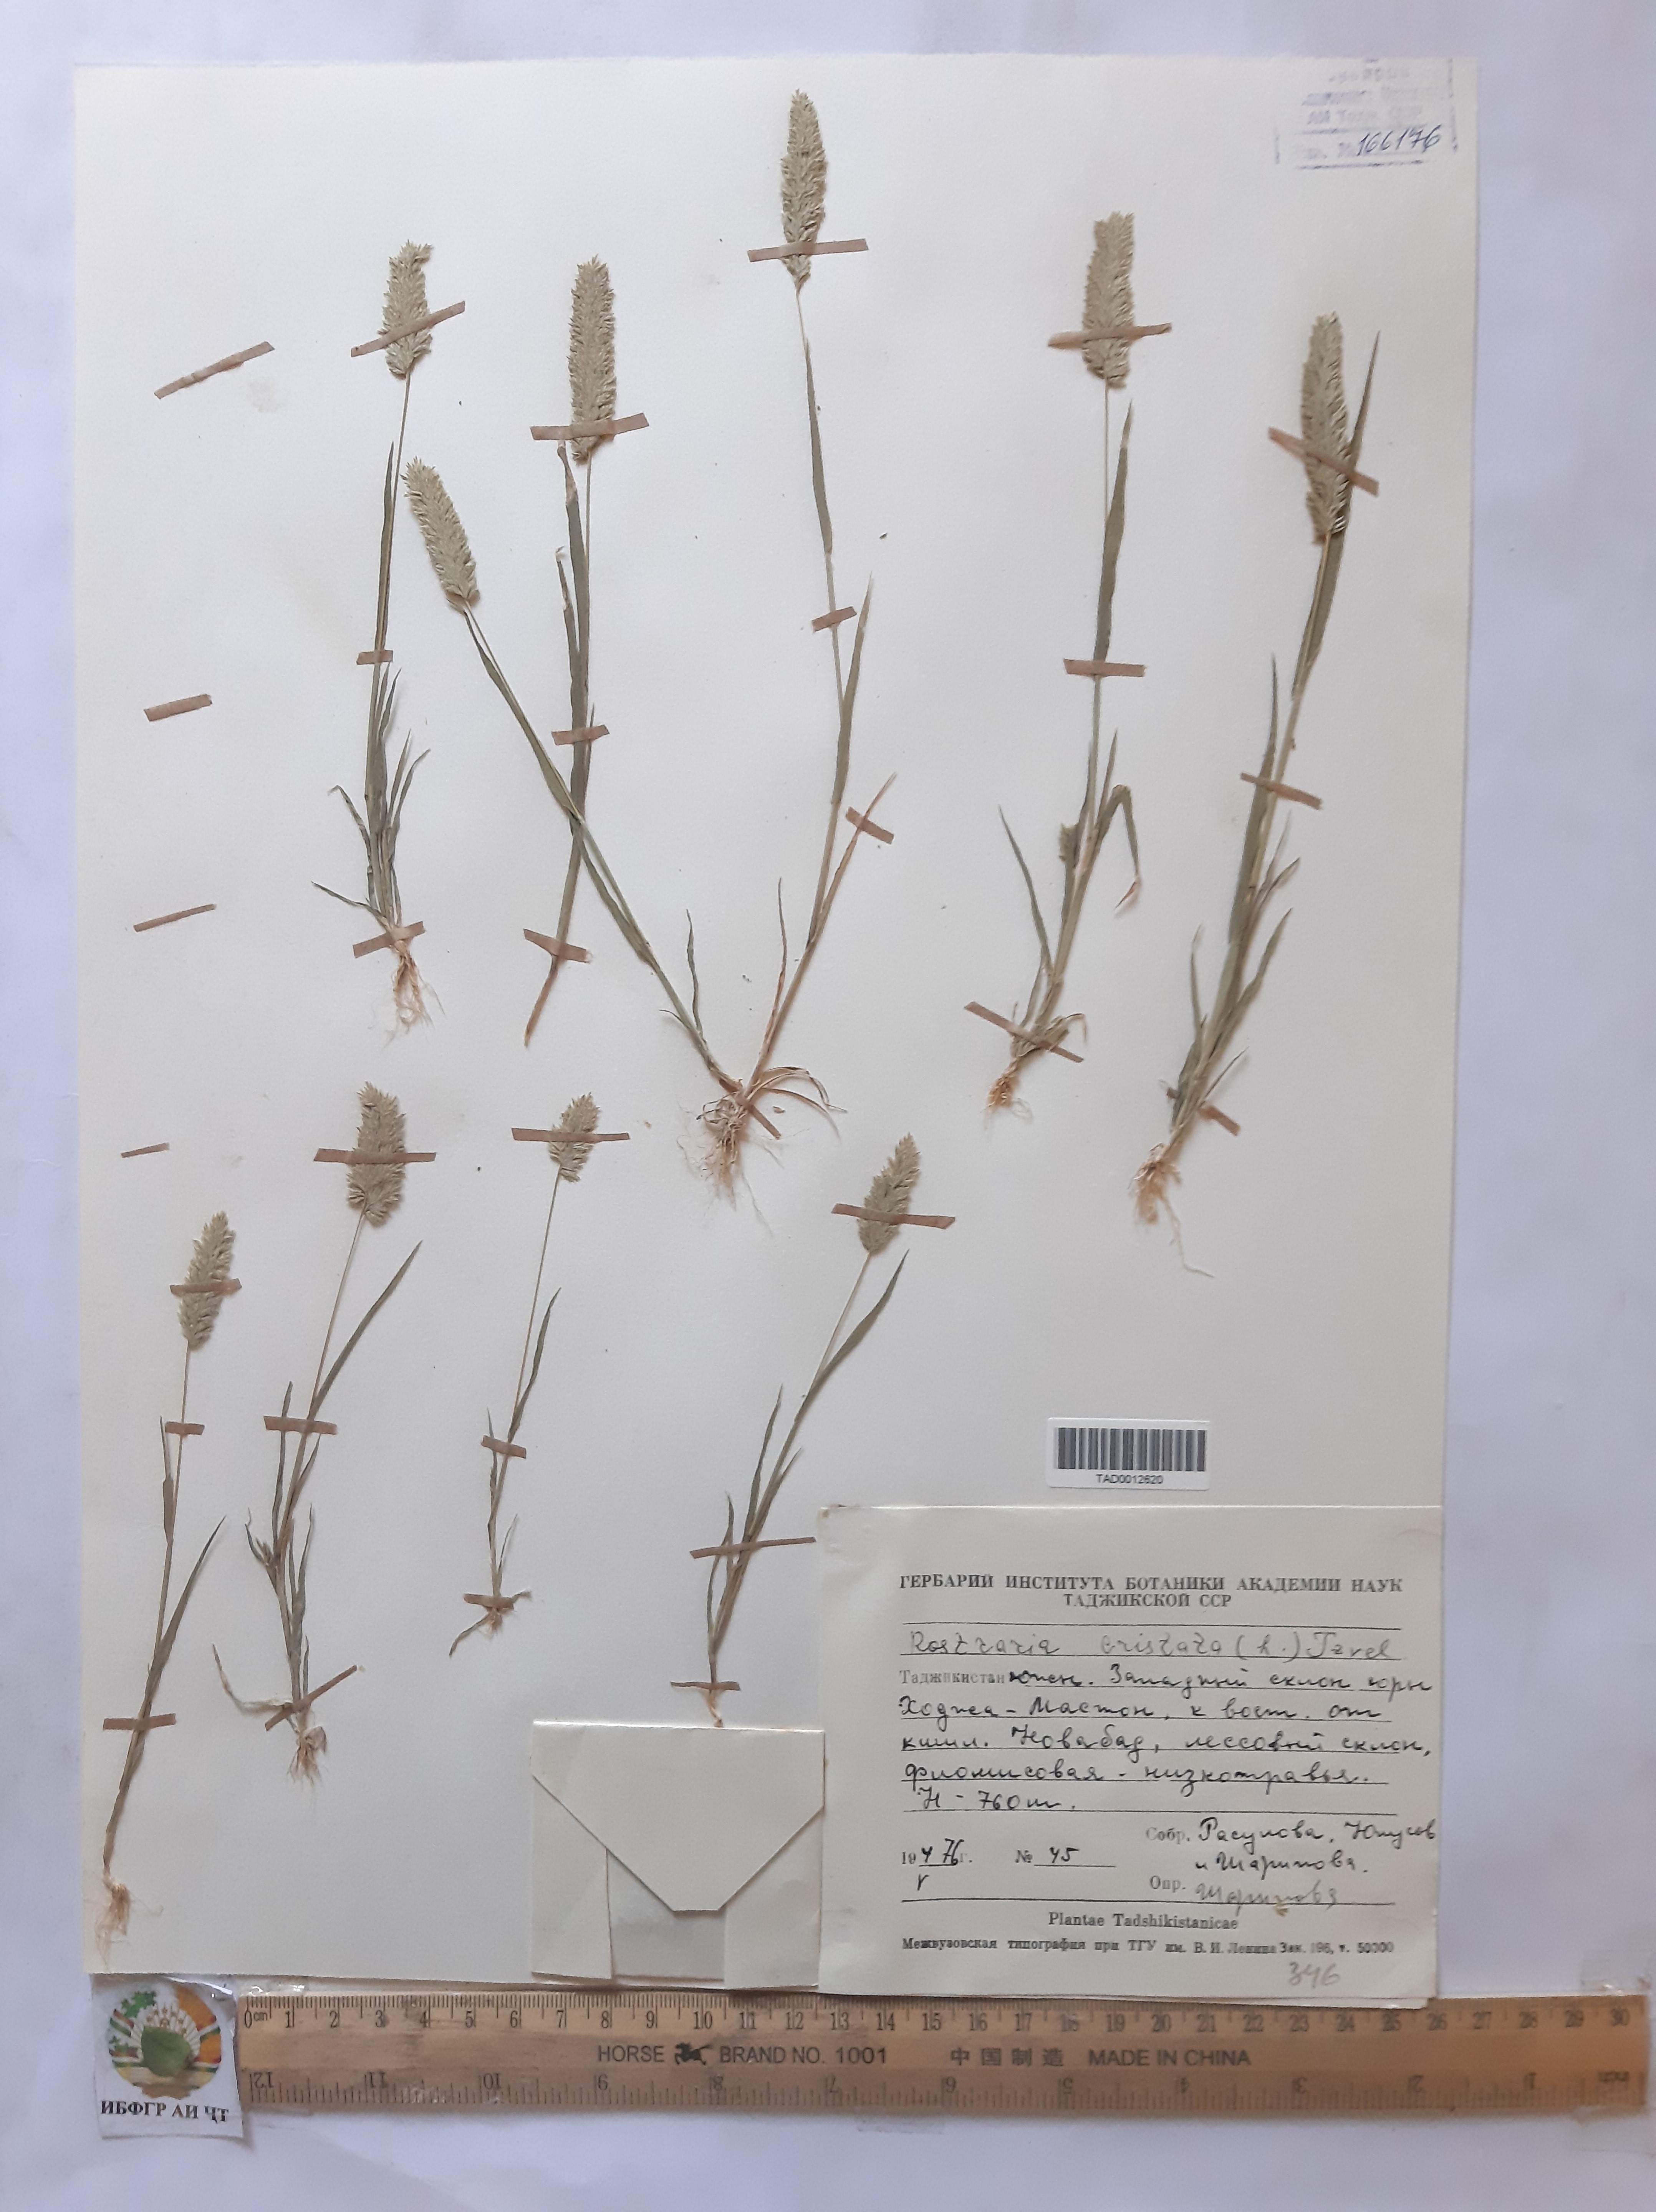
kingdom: Plantae
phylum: Tracheophyta
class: Liliopsida
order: Poales
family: Poaceae
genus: Rostraria
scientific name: Rostraria cristata
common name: Mediterranean hair-grass
